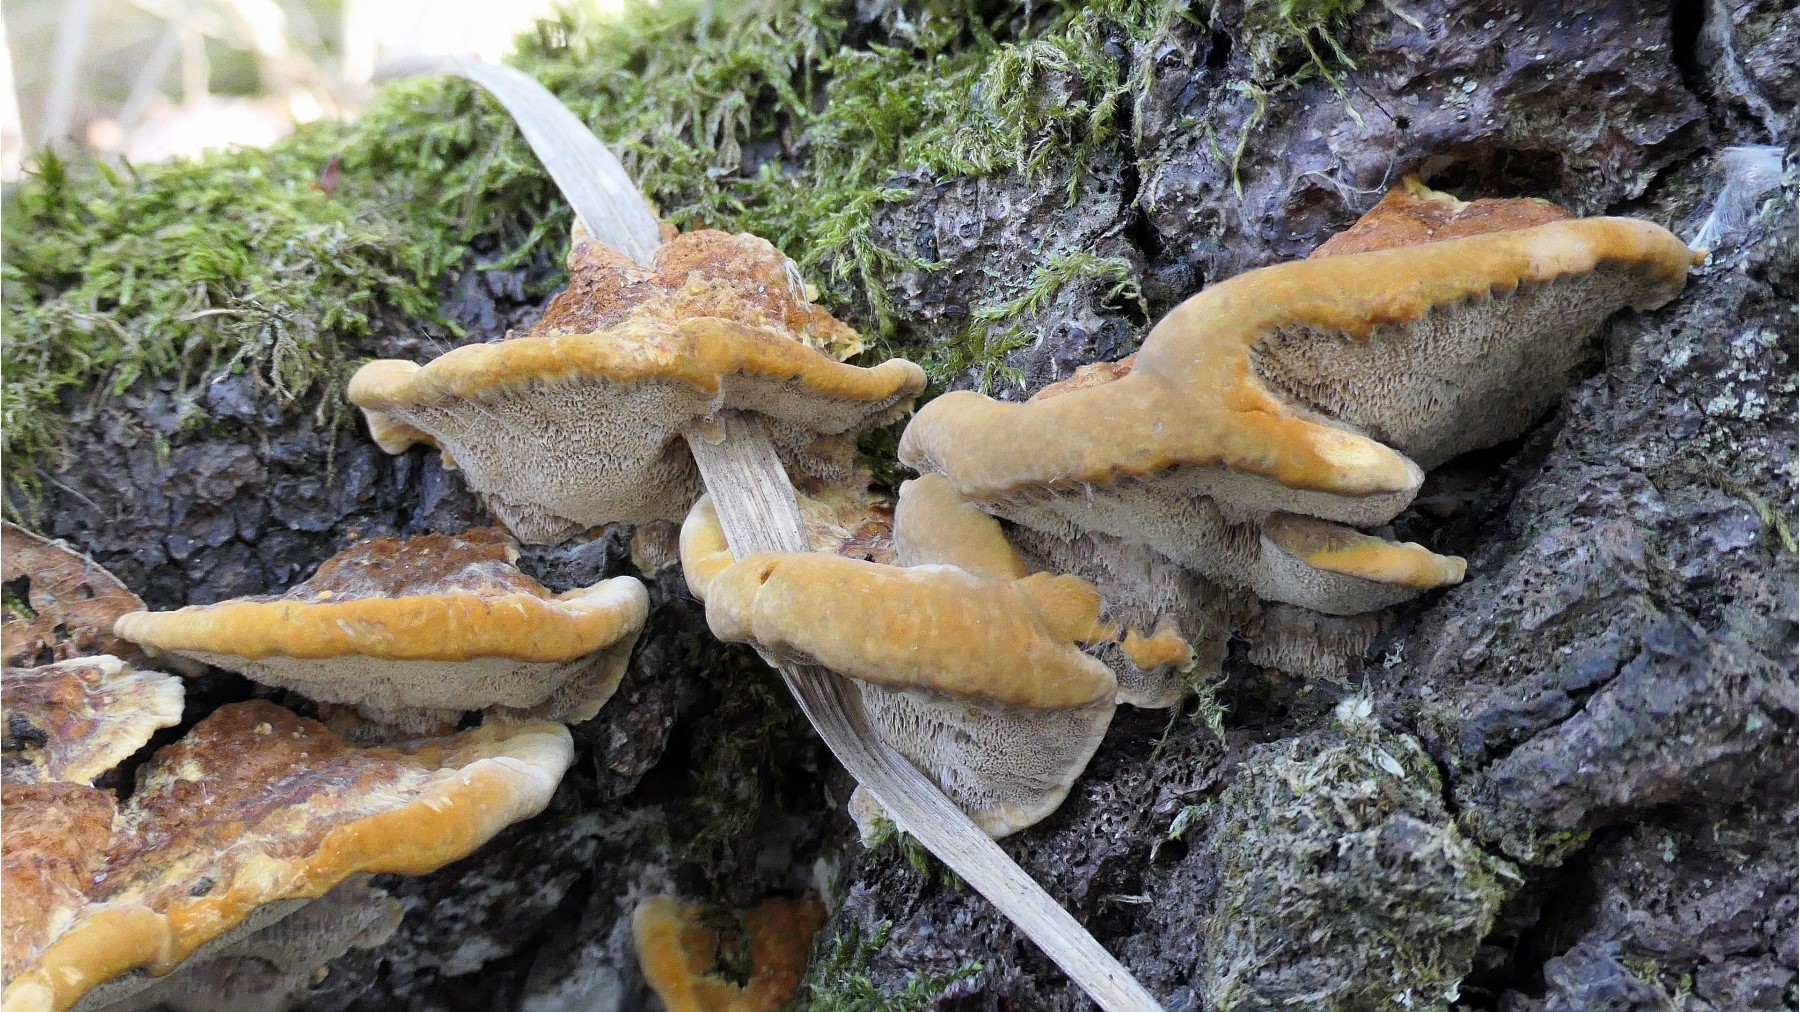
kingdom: Fungi
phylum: Basidiomycota
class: Agaricomycetes
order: Hymenochaetales
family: Hymenochaetaceae
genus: Xanthoporia
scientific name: Xanthoporia radiata
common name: elle-spejlporesvamp
